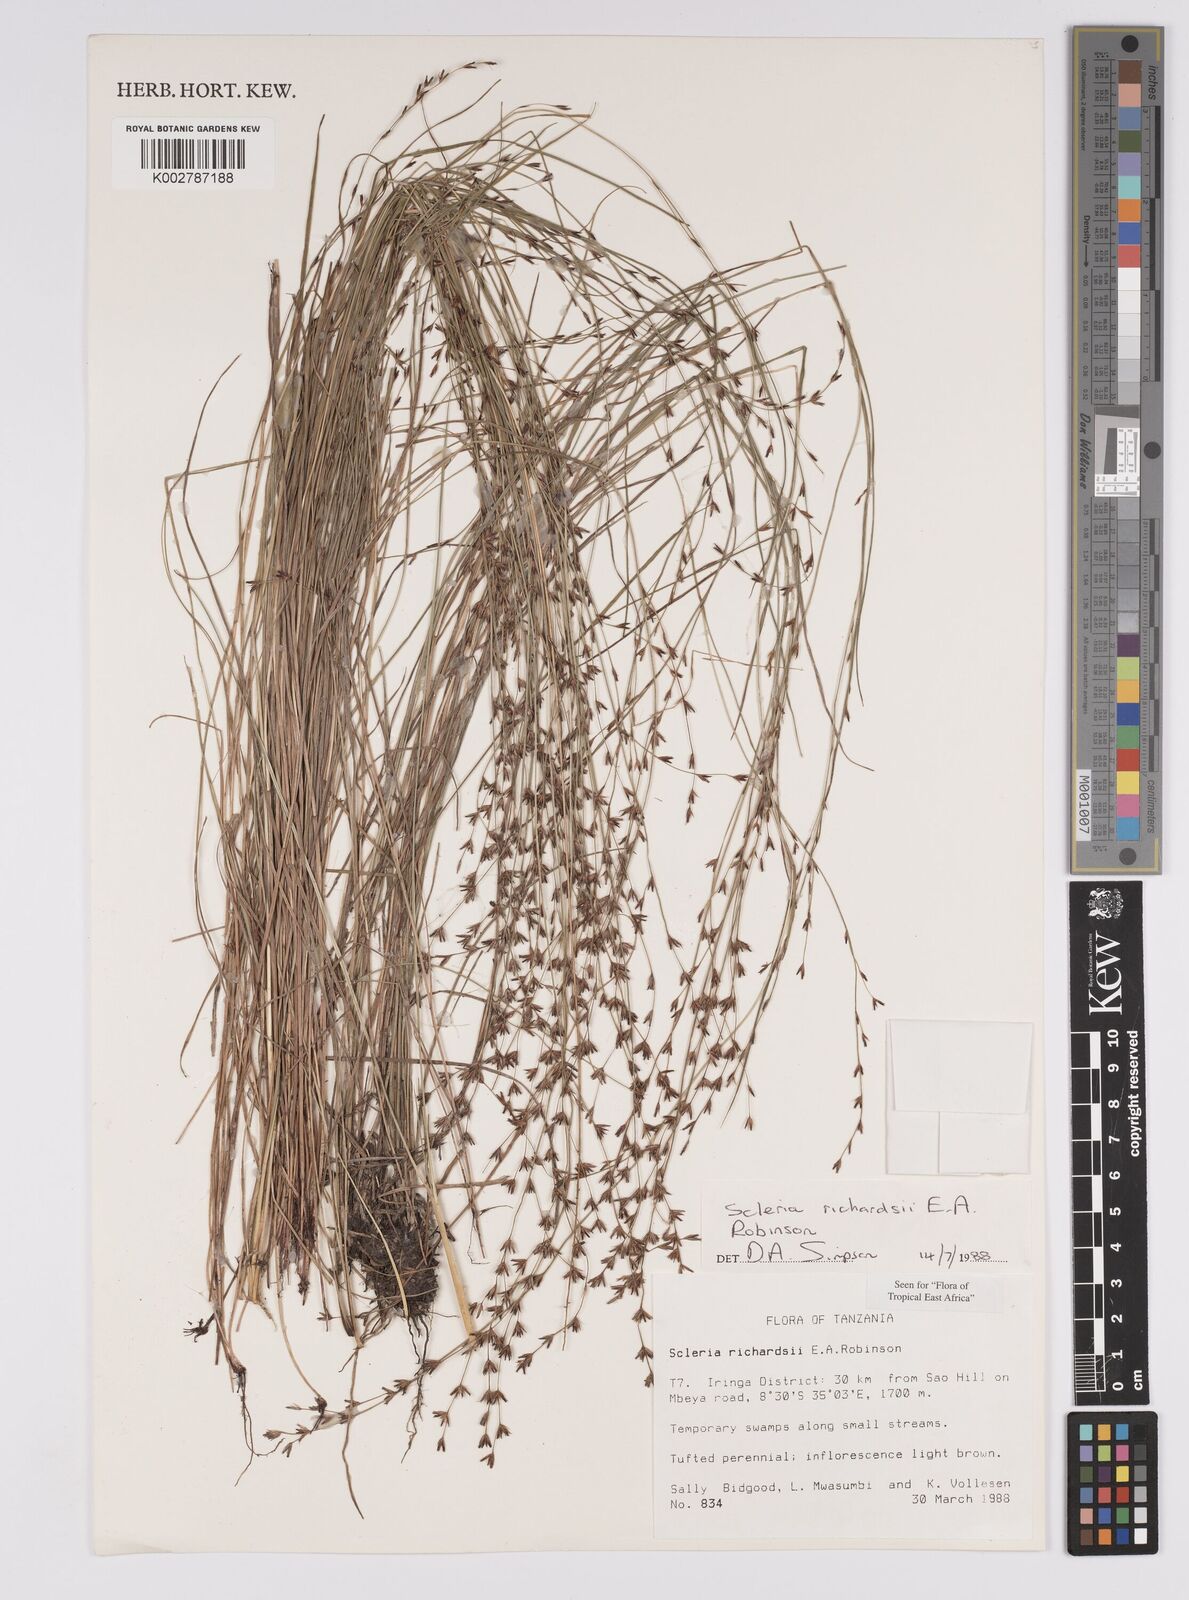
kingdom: Plantae
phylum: Tracheophyta
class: Liliopsida
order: Poales
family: Cyperaceae
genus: Scleria
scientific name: Scleria richardsiae
